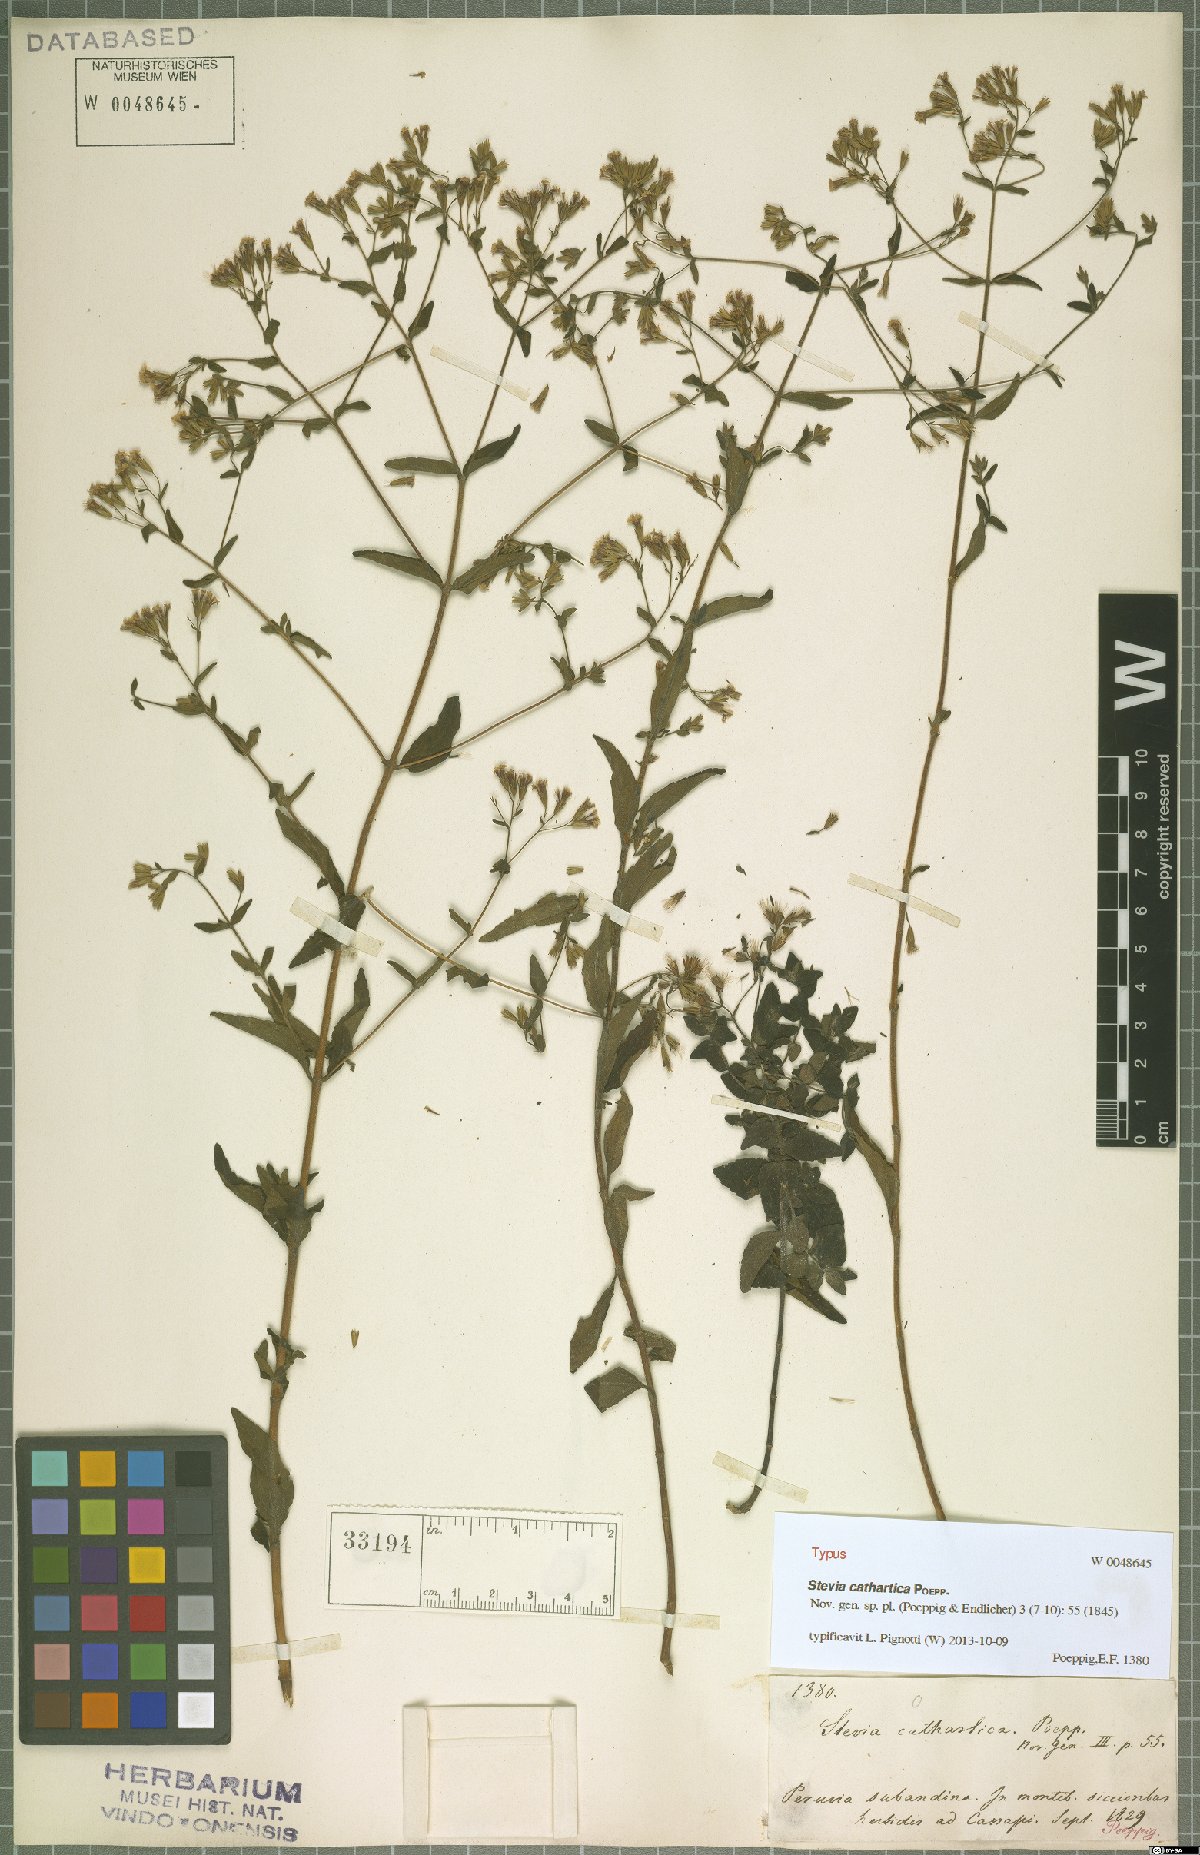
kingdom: Plantae
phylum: Tracheophyta
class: Magnoliopsida
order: Asterales
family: Asteraceae
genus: Stevia
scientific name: Stevia cathartica
